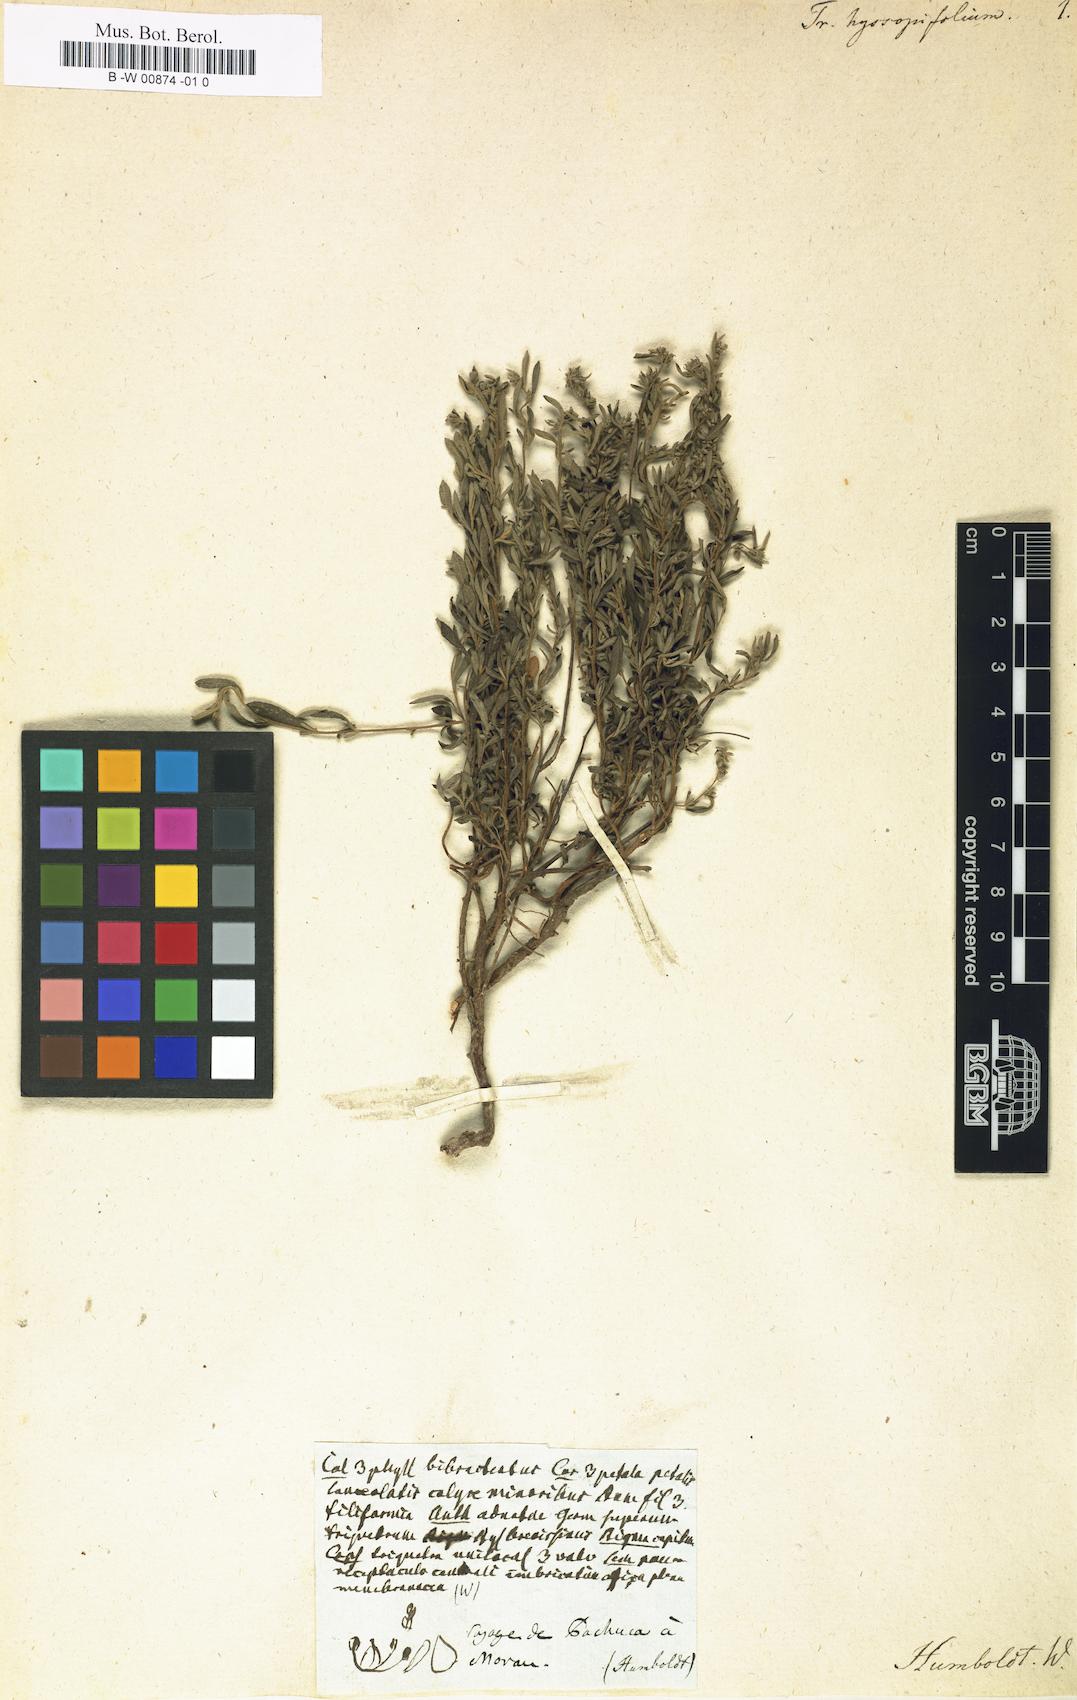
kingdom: Plantae
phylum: Tracheophyta
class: Magnoliopsida
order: Malvales
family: Cistaceae
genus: Crocanthemum
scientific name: Crocanthemum glomeratum
